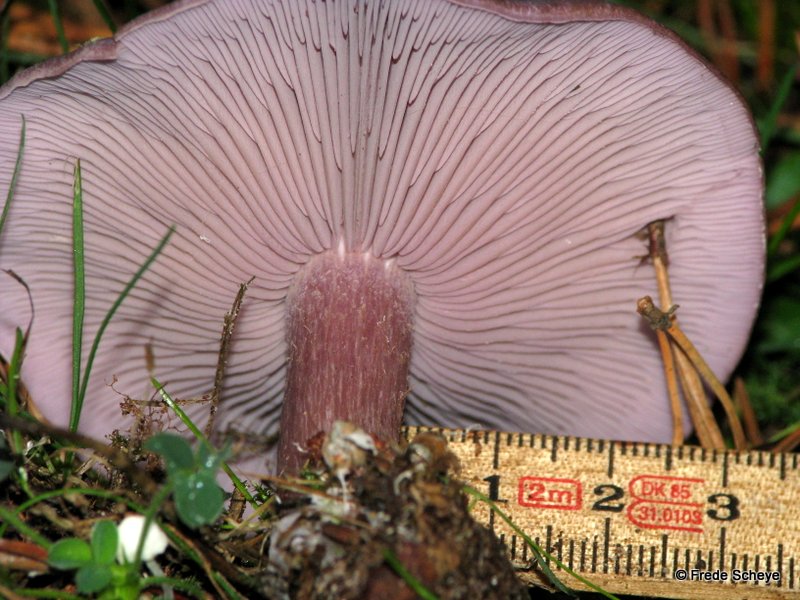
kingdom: Fungi
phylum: Basidiomycota
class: Agaricomycetes
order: Agaricales
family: Tricholomataceae
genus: Lepista
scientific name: Lepista nuda
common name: violet hekseringshat
